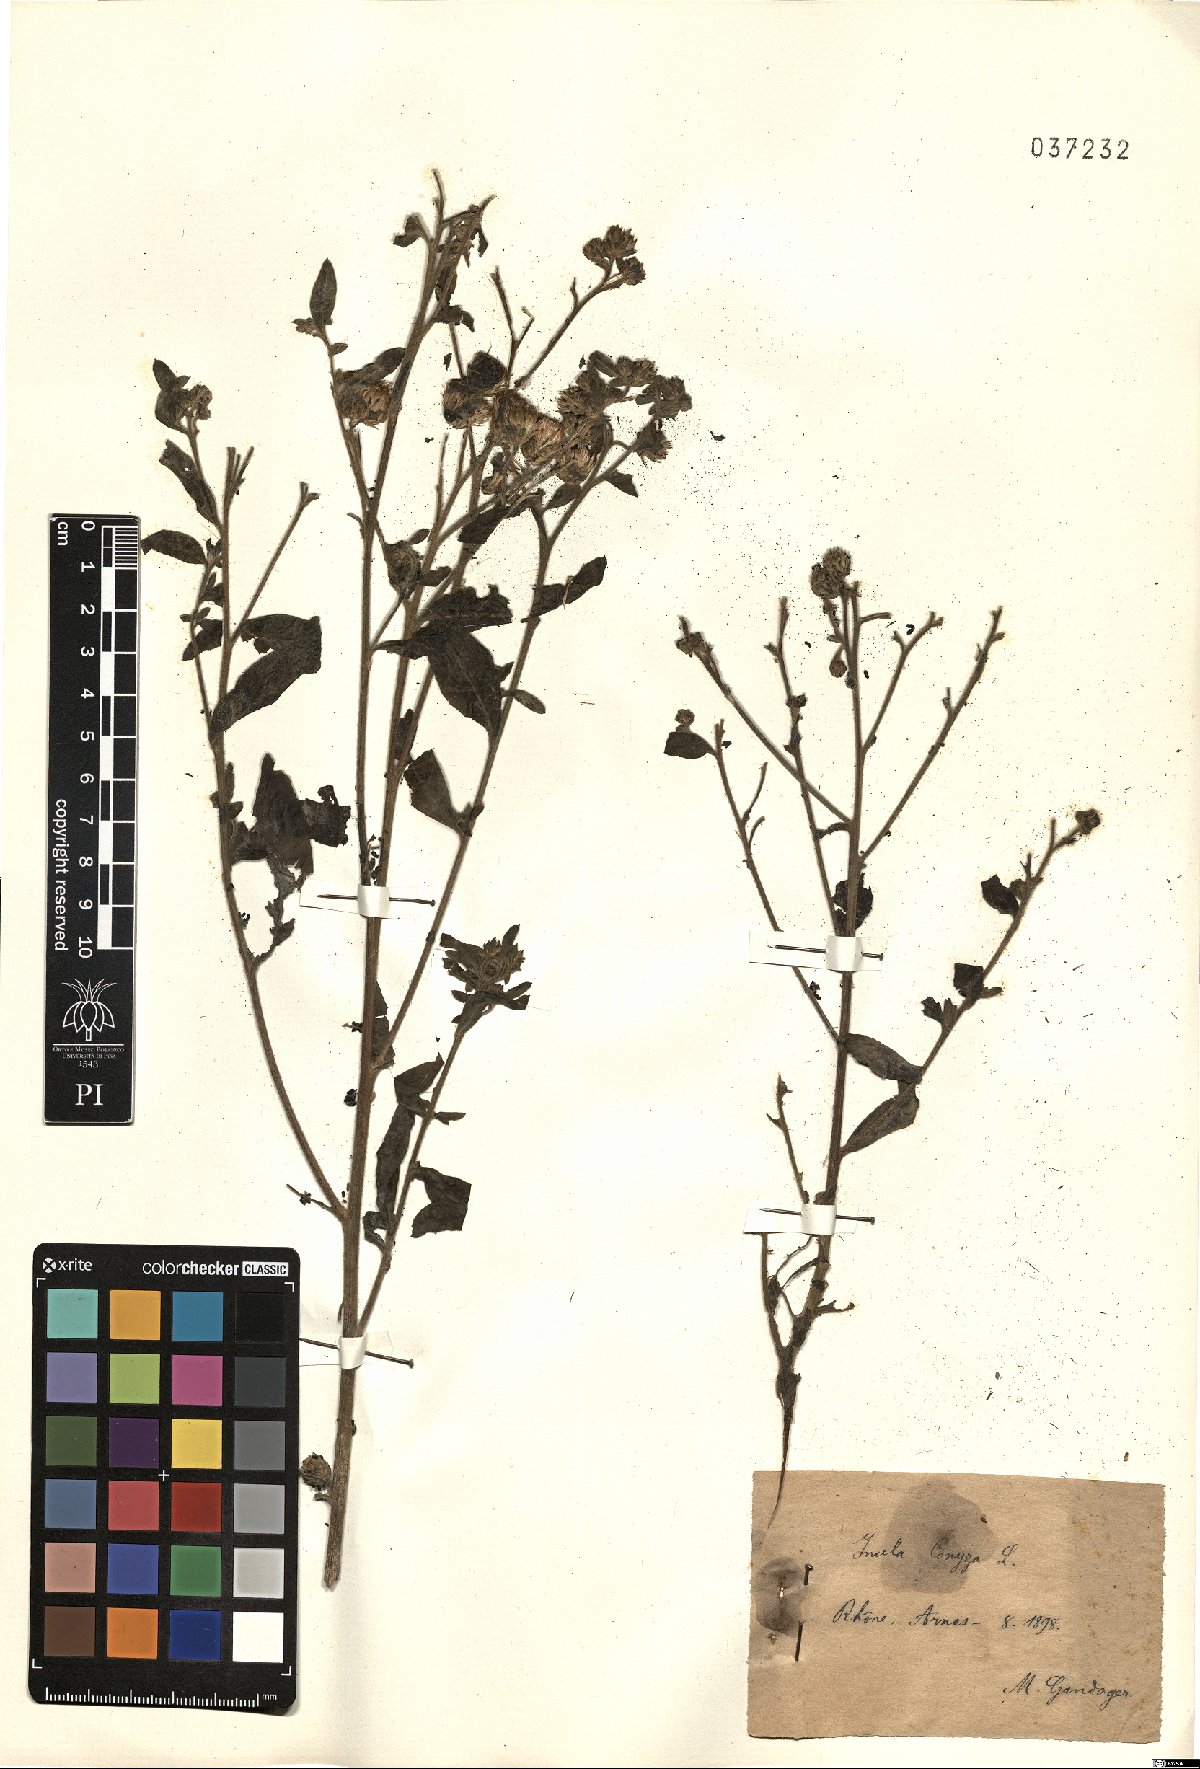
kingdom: Plantae
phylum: Tracheophyta
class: Magnoliopsida
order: Asterales
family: Asteraceae
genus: Pentanema
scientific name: Pentanema squarrosum
